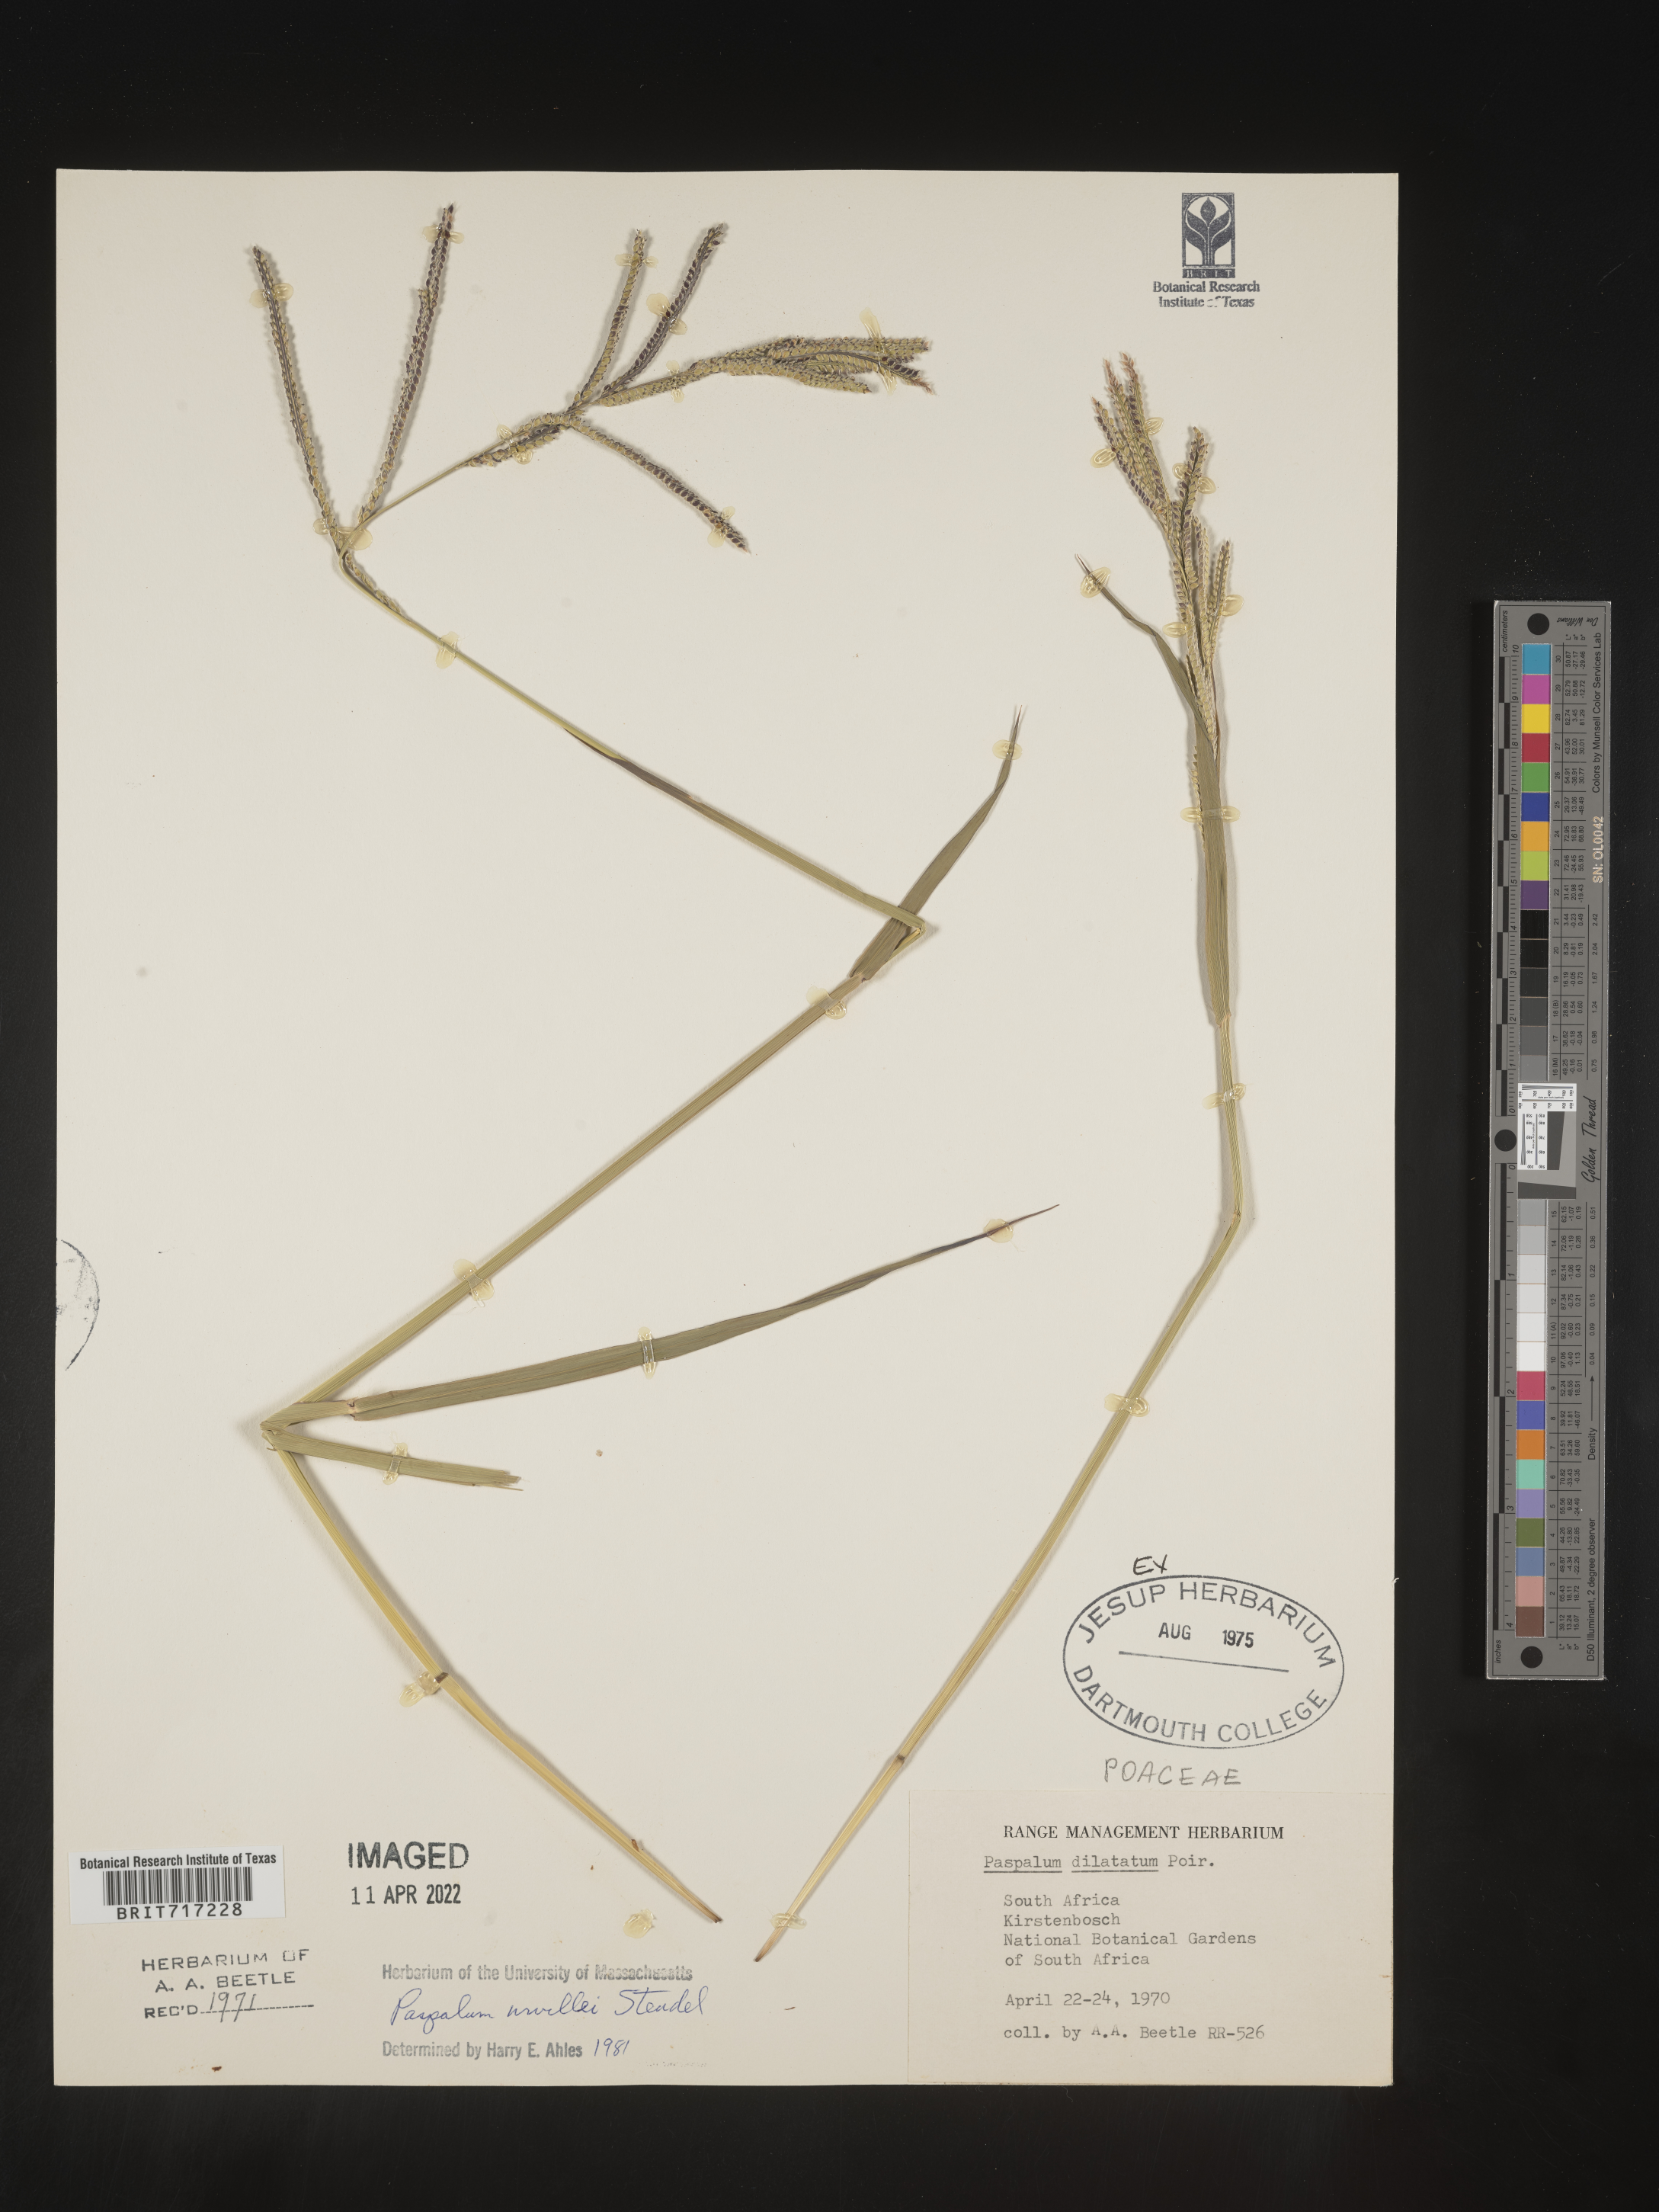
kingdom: Plantae
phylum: Tracheophyta
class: Liliopsida
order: Poales
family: Poaceae
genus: Paspalum
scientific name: Paspalum dilatatum
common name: Dallisgrass
